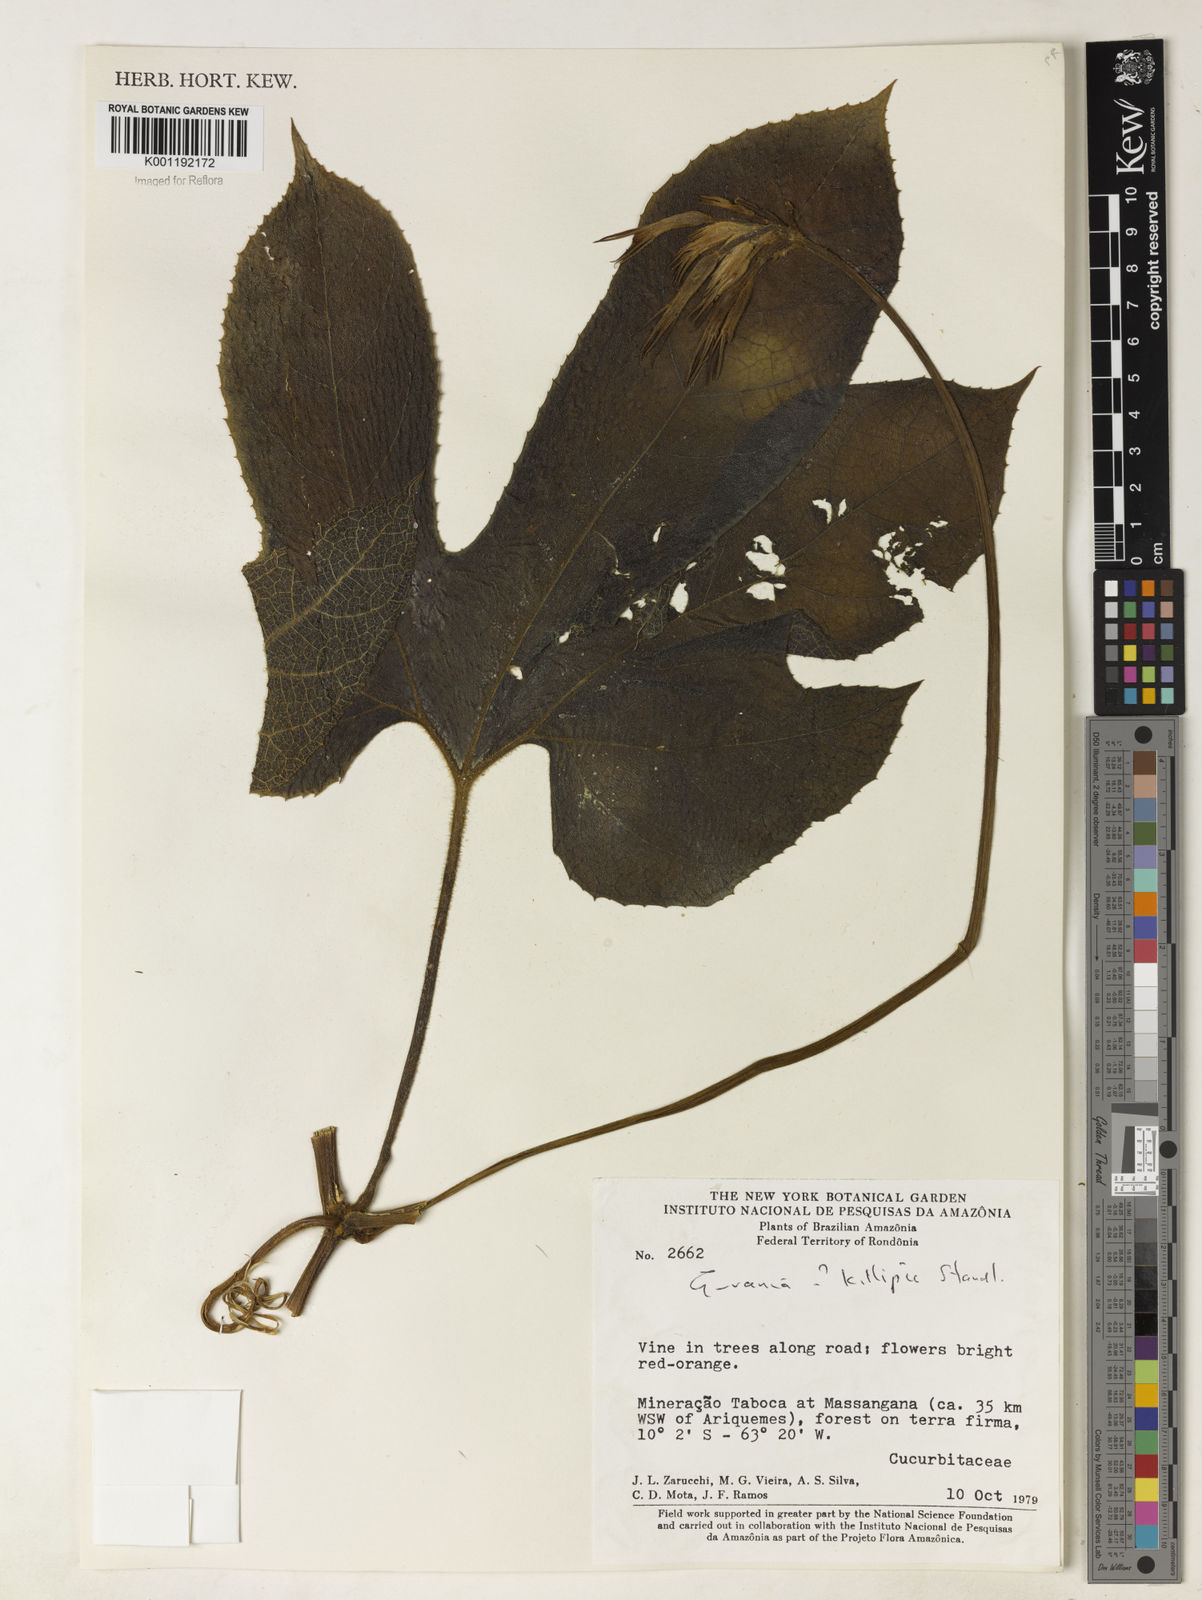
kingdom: Plantae
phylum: Tracheophyta
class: Magnoliopsida
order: Cucurbitales
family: Cucurbitaceae
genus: Gurania
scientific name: Gurania
